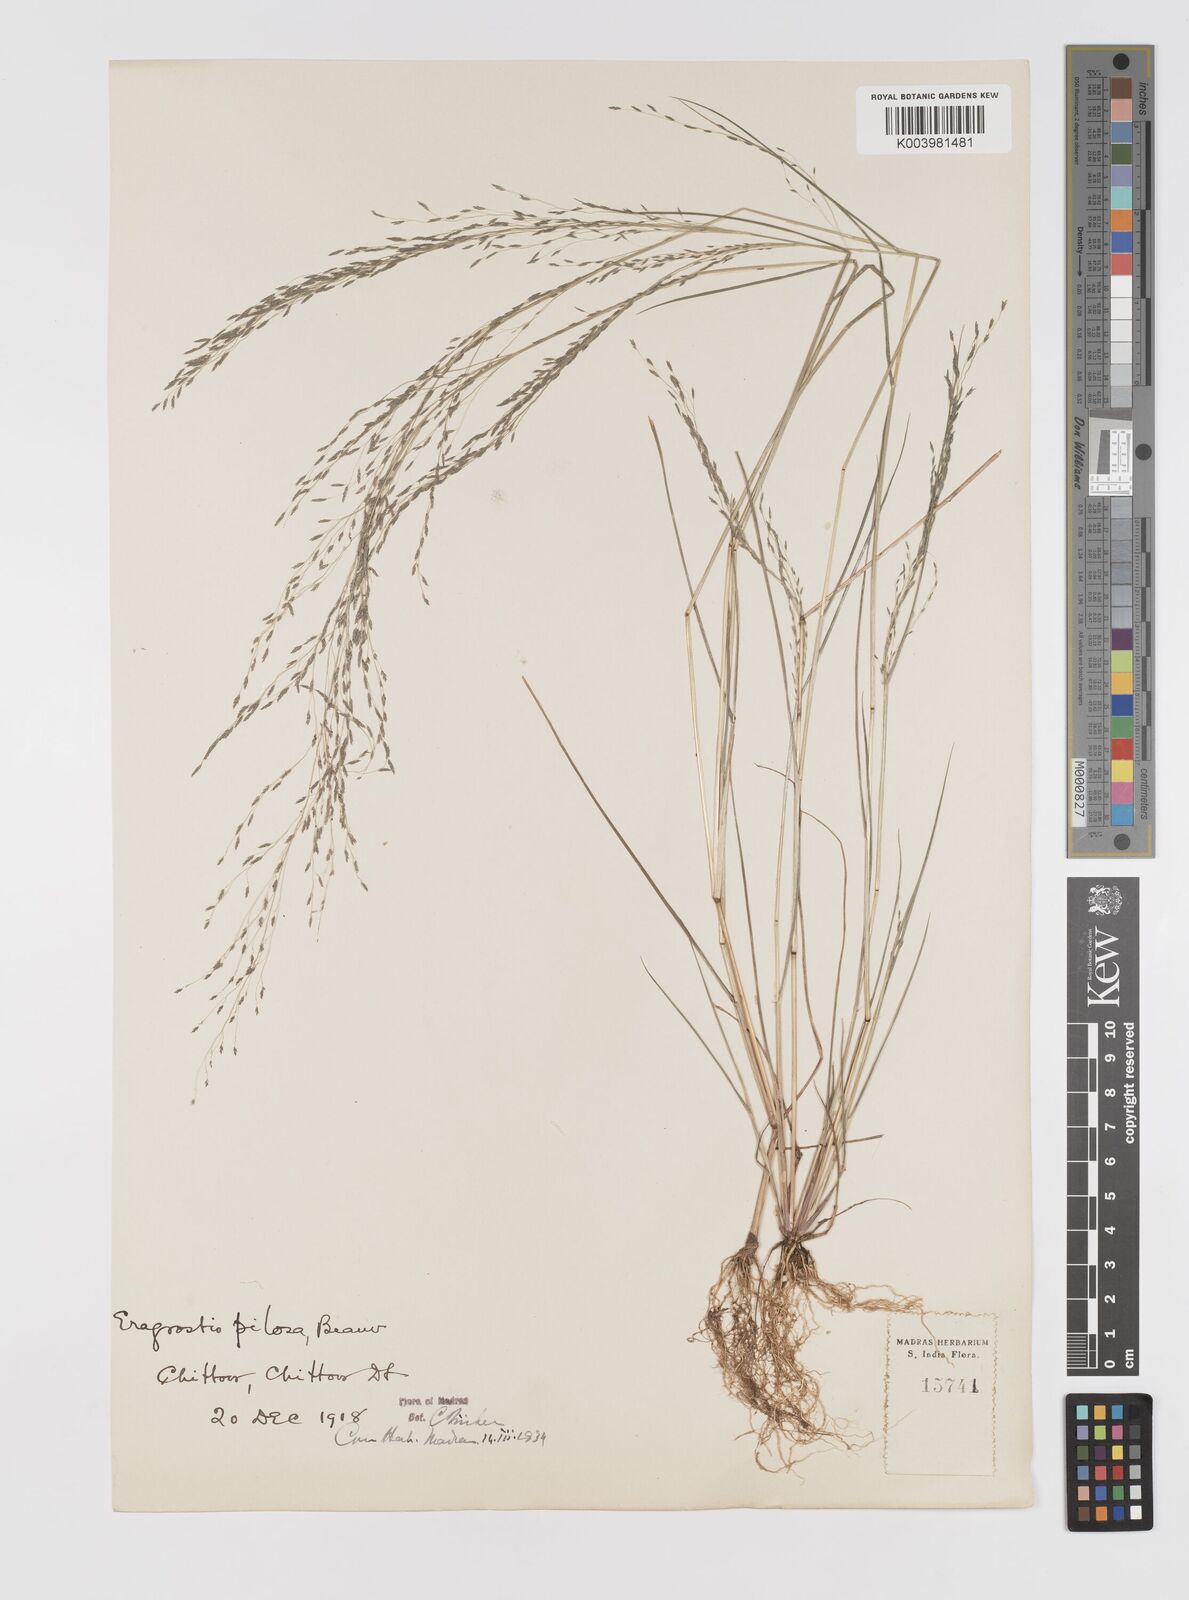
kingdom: Plantae
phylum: Tracheophyta
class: Liliopsida
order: Poales
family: Poaceae
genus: Eragrostis
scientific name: Eragrostis pilosa
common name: Indian lovegrass
